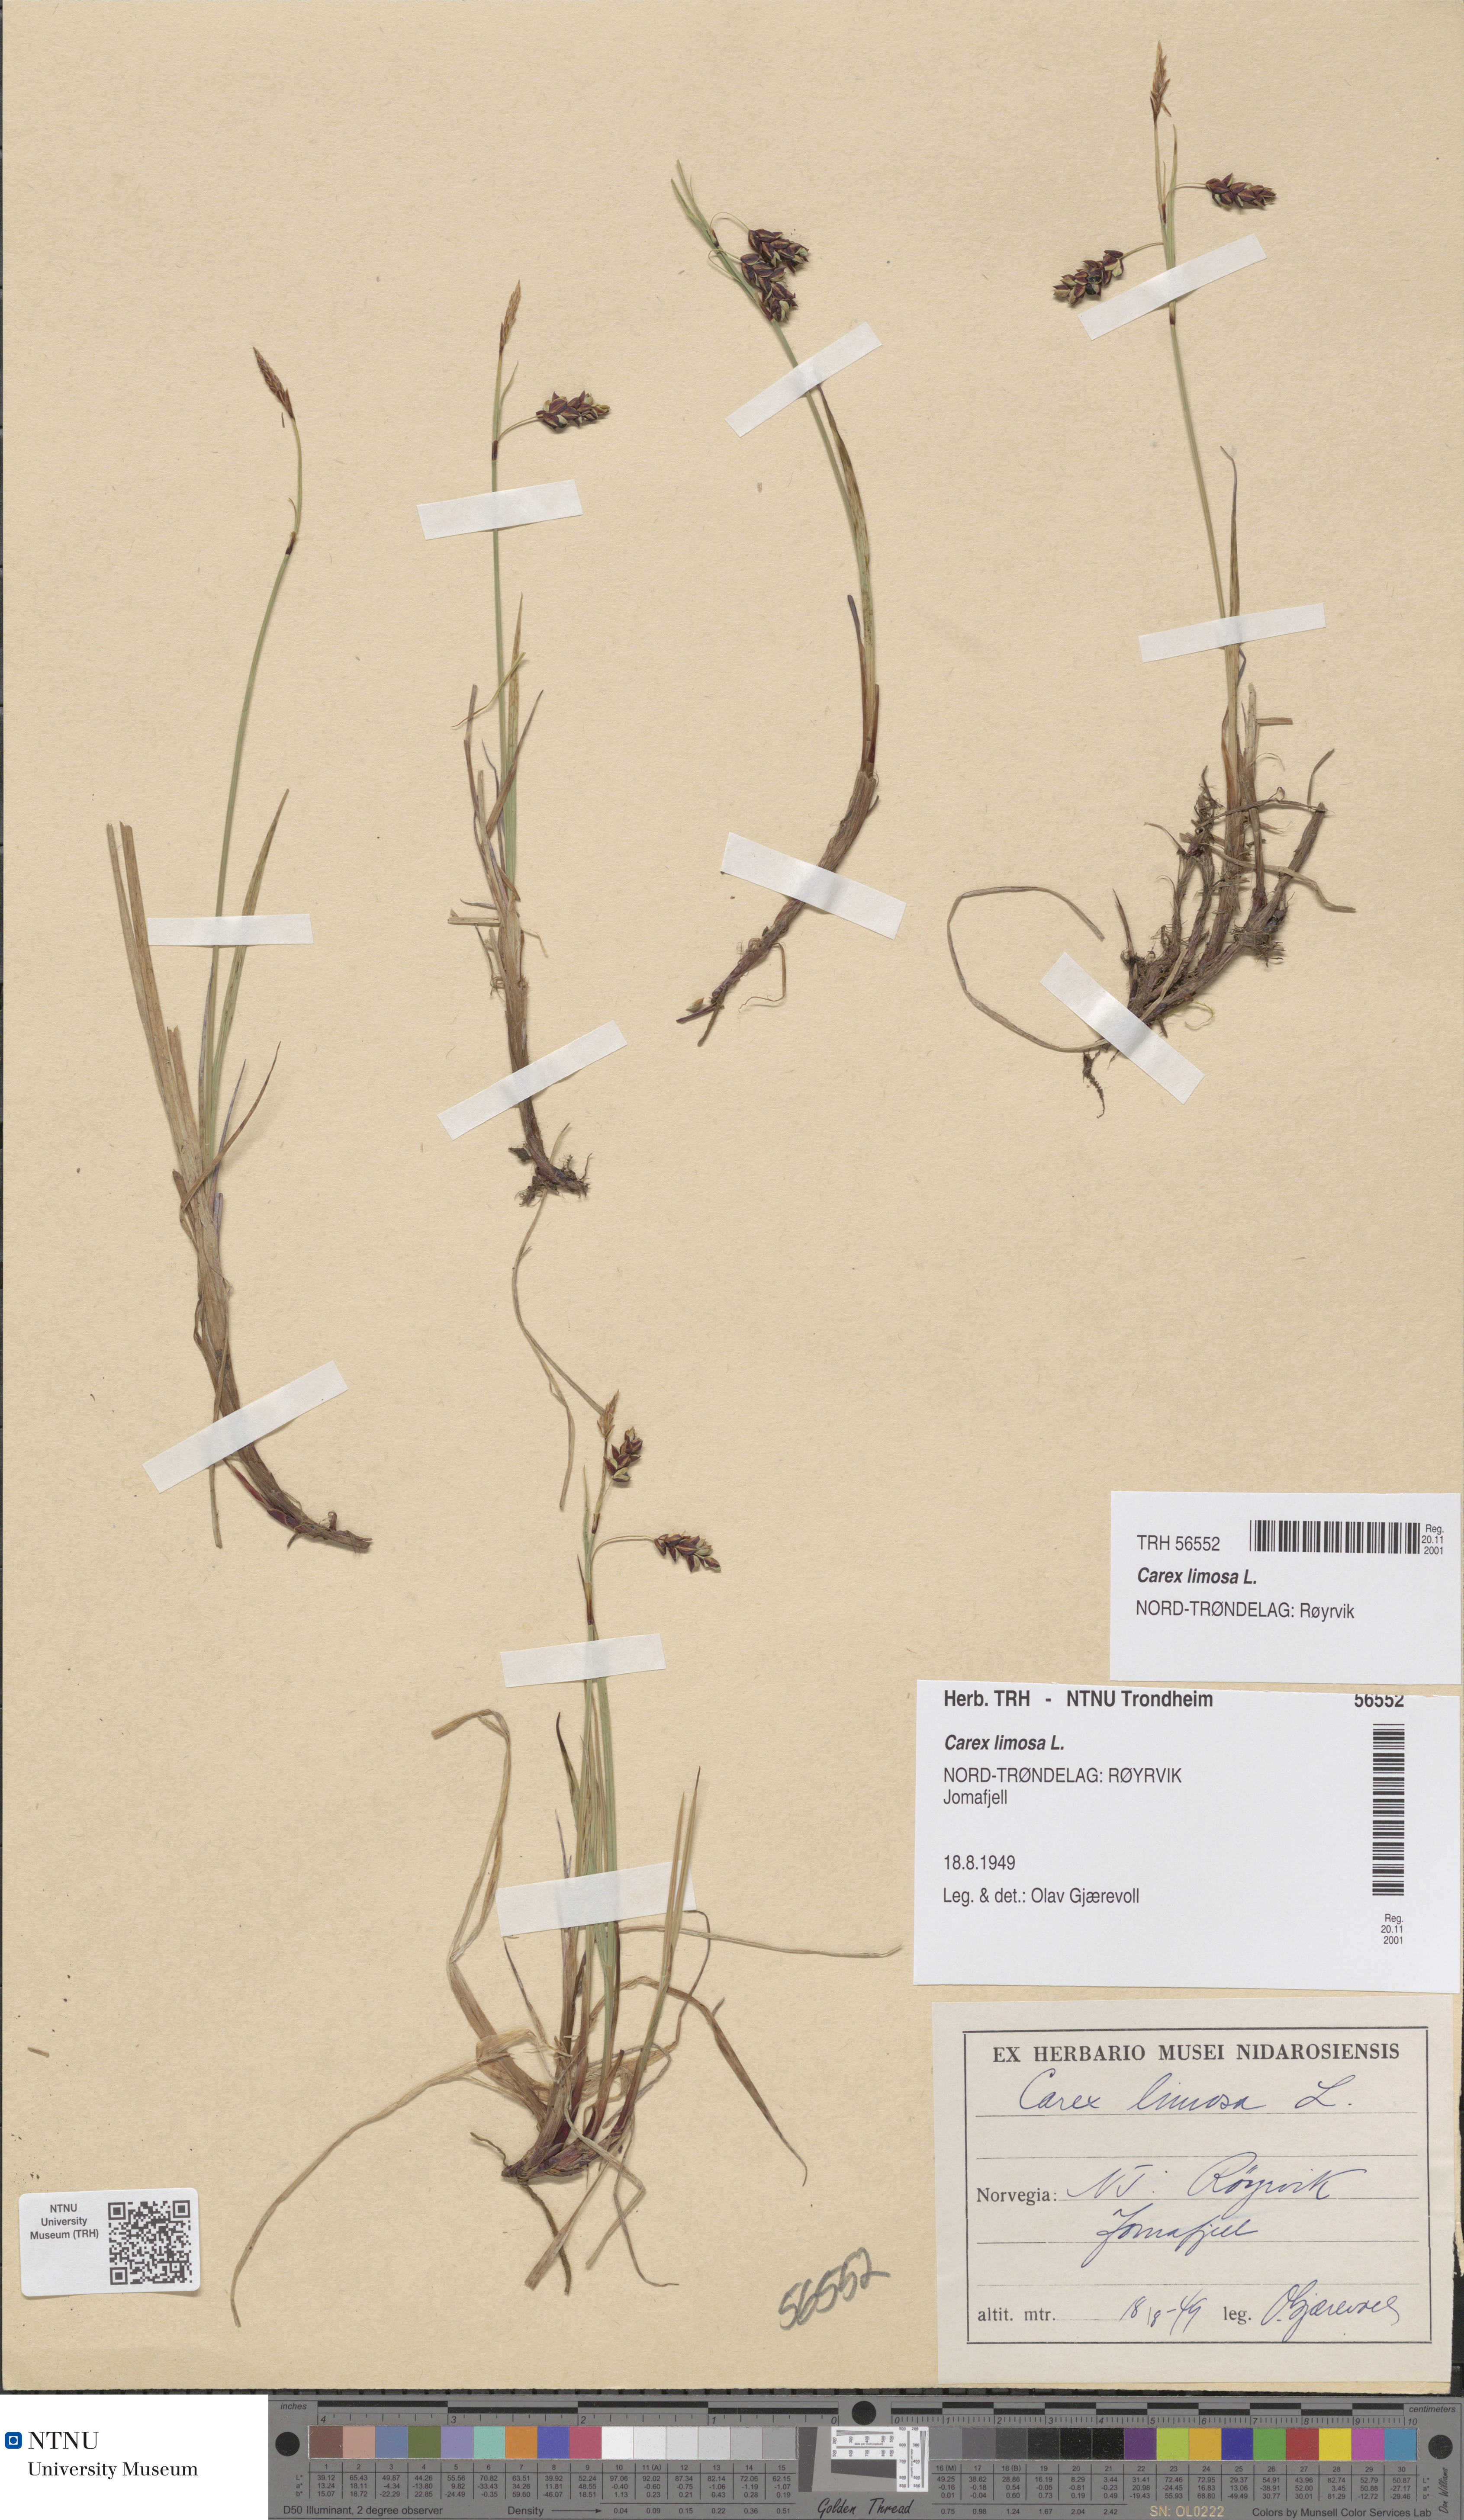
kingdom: Plantae
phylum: Tracheophyta
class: Liliopsida
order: Poales
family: Cyperaceae
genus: Carex
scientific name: Carex limosa
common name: Bog sedge
